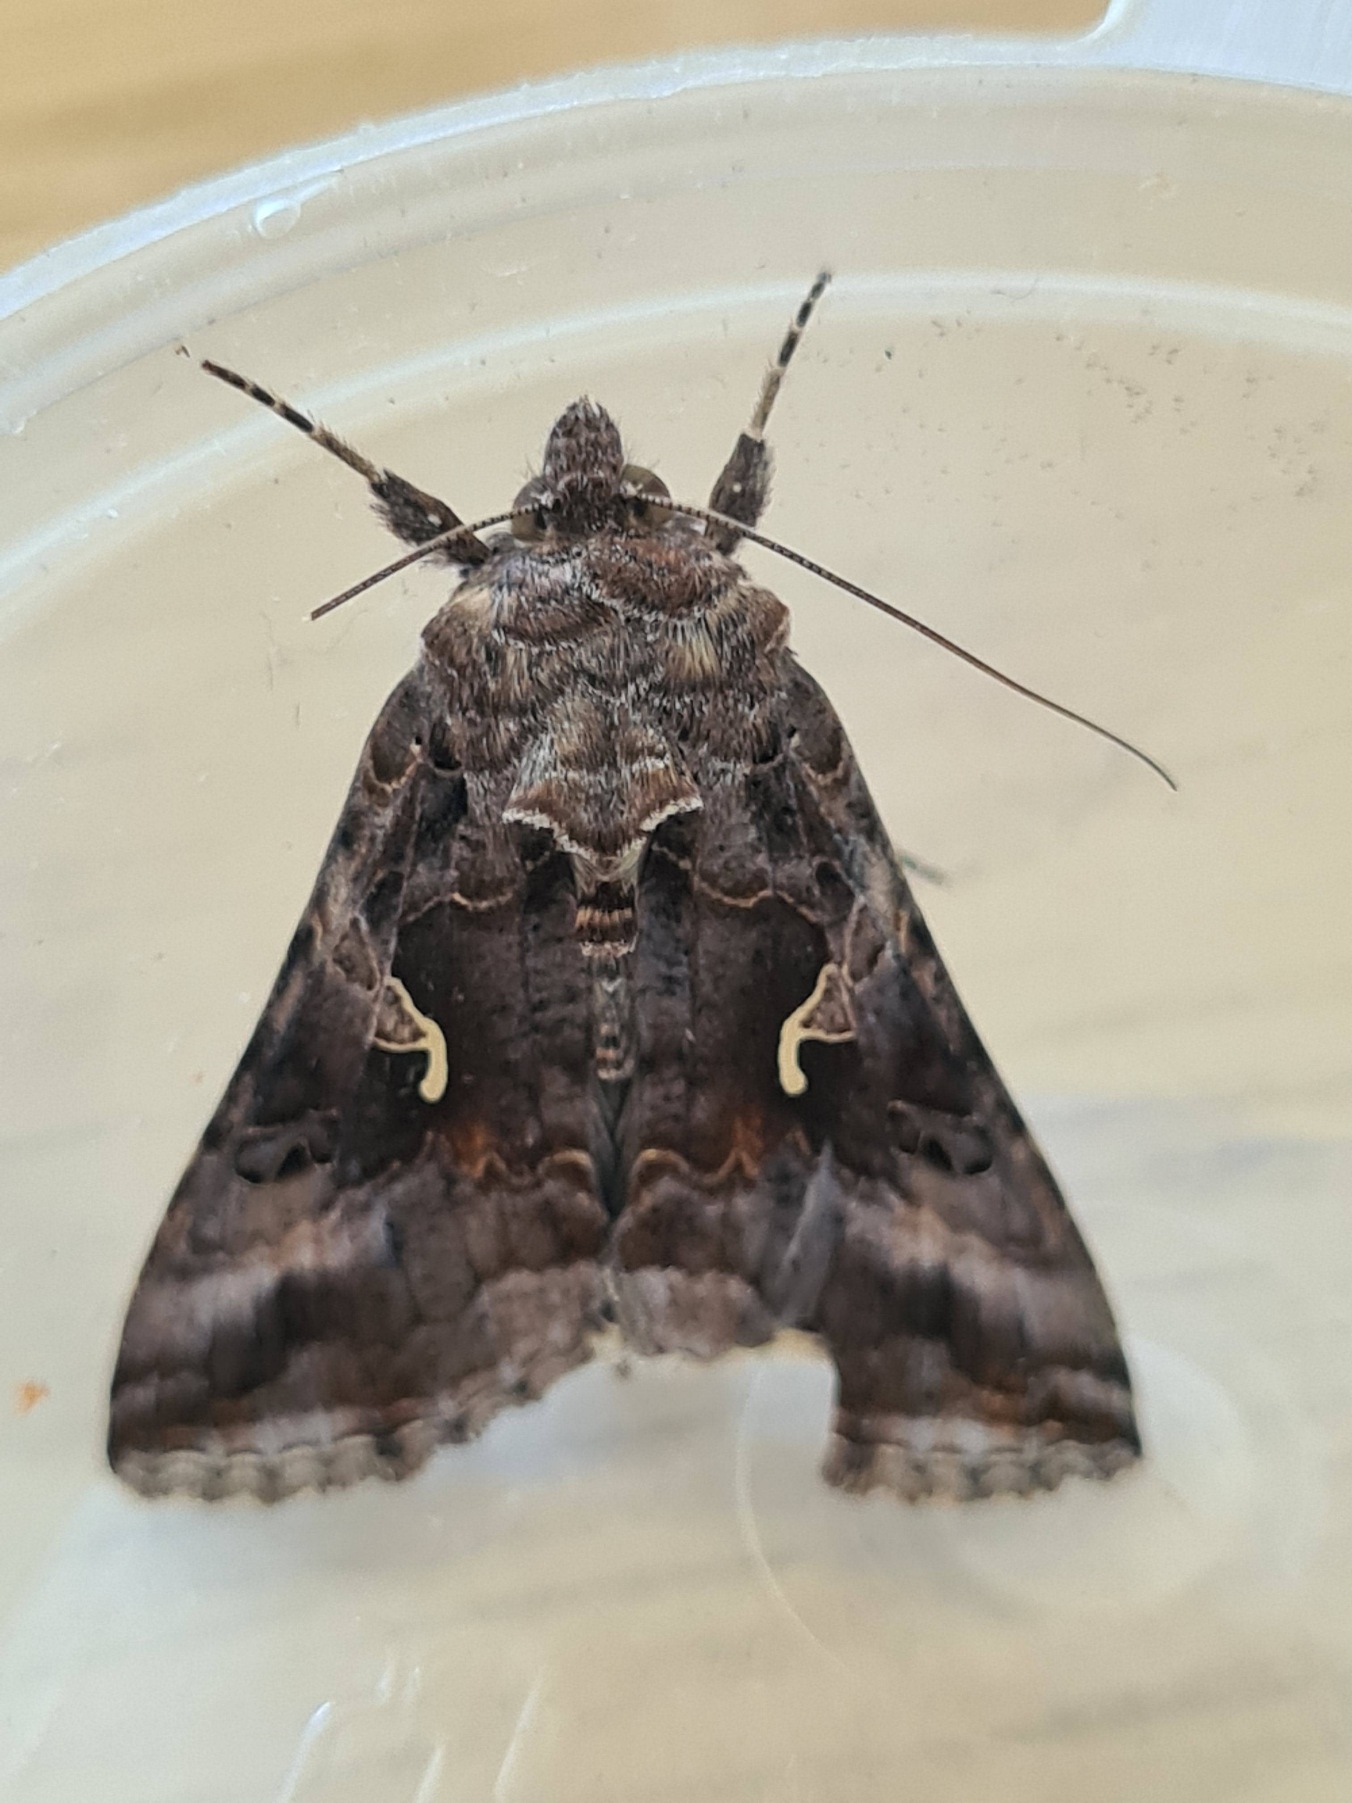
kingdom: Animalia
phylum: Arthropoda
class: Insecta
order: Lepidoptera
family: Noctuidae
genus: Autographa
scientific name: Autographa gamma
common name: Gammaugle
